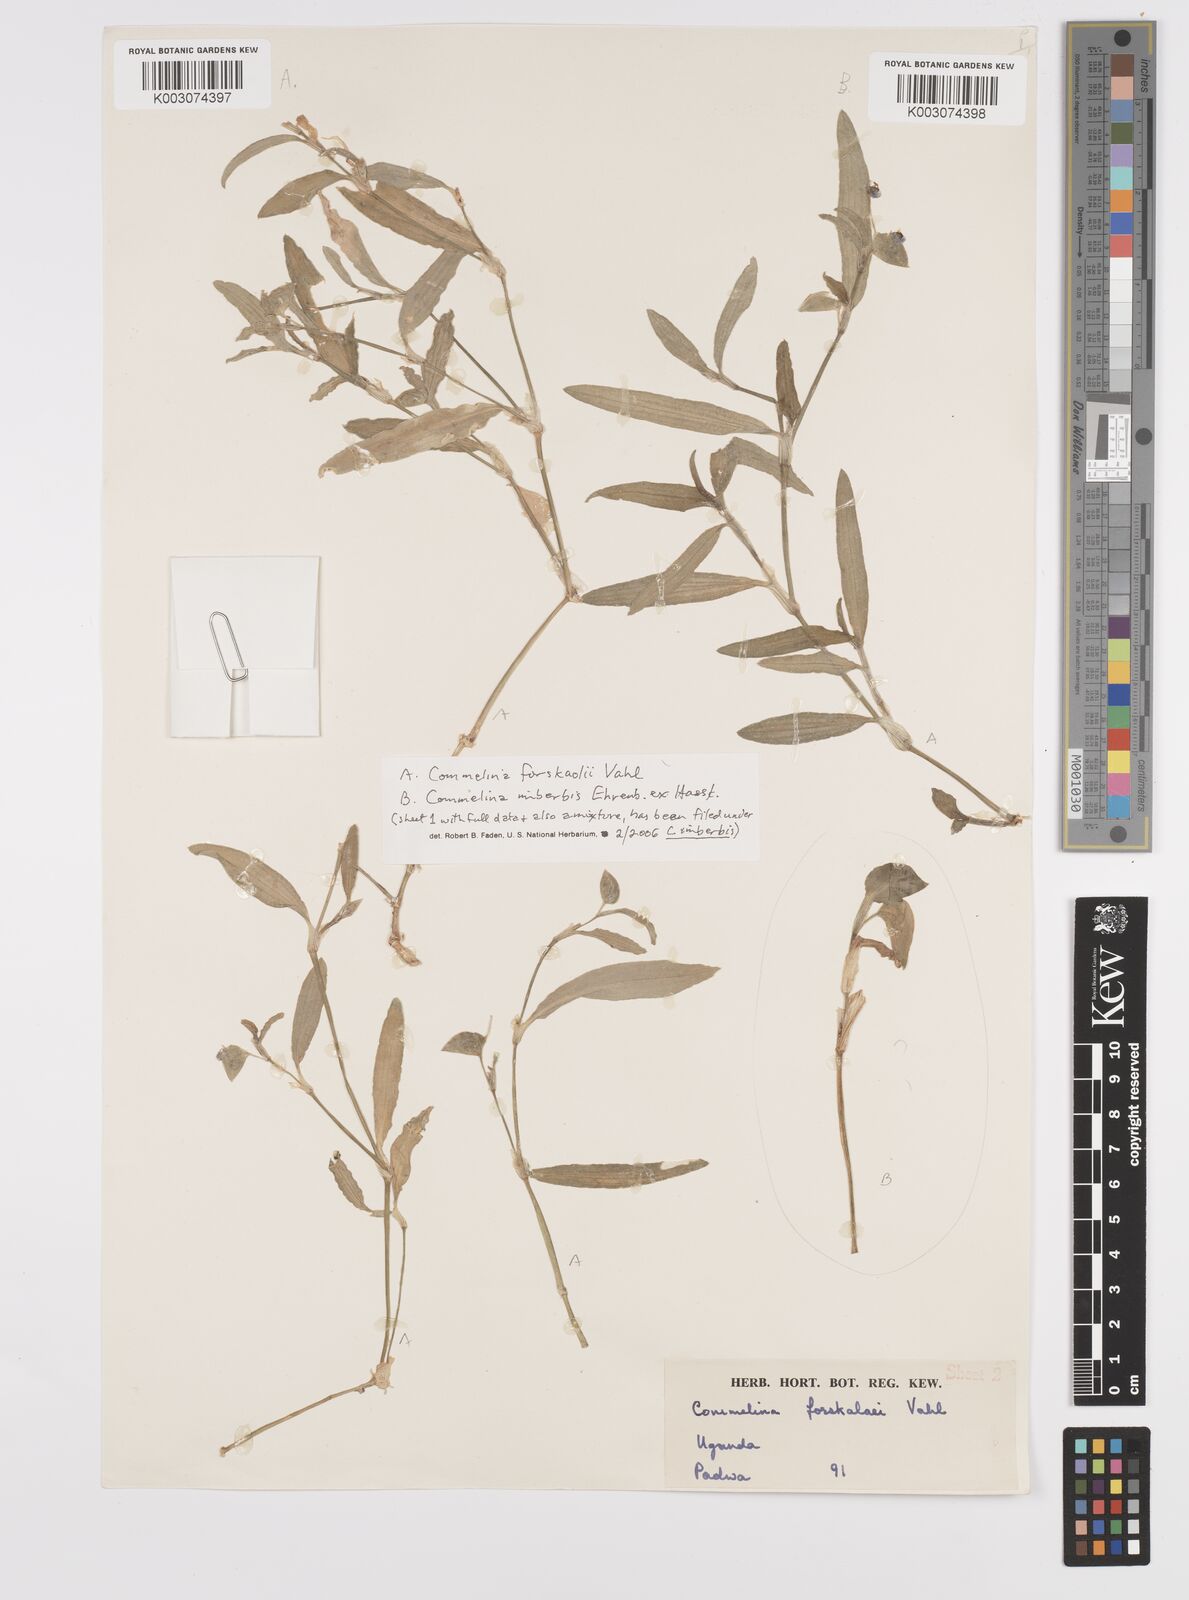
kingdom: Plantae
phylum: Tracheophyta
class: Liliopsida
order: Commelinales
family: Commelinaceae
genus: Commelina
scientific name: Commelina forskaolii
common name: Rat's ear
